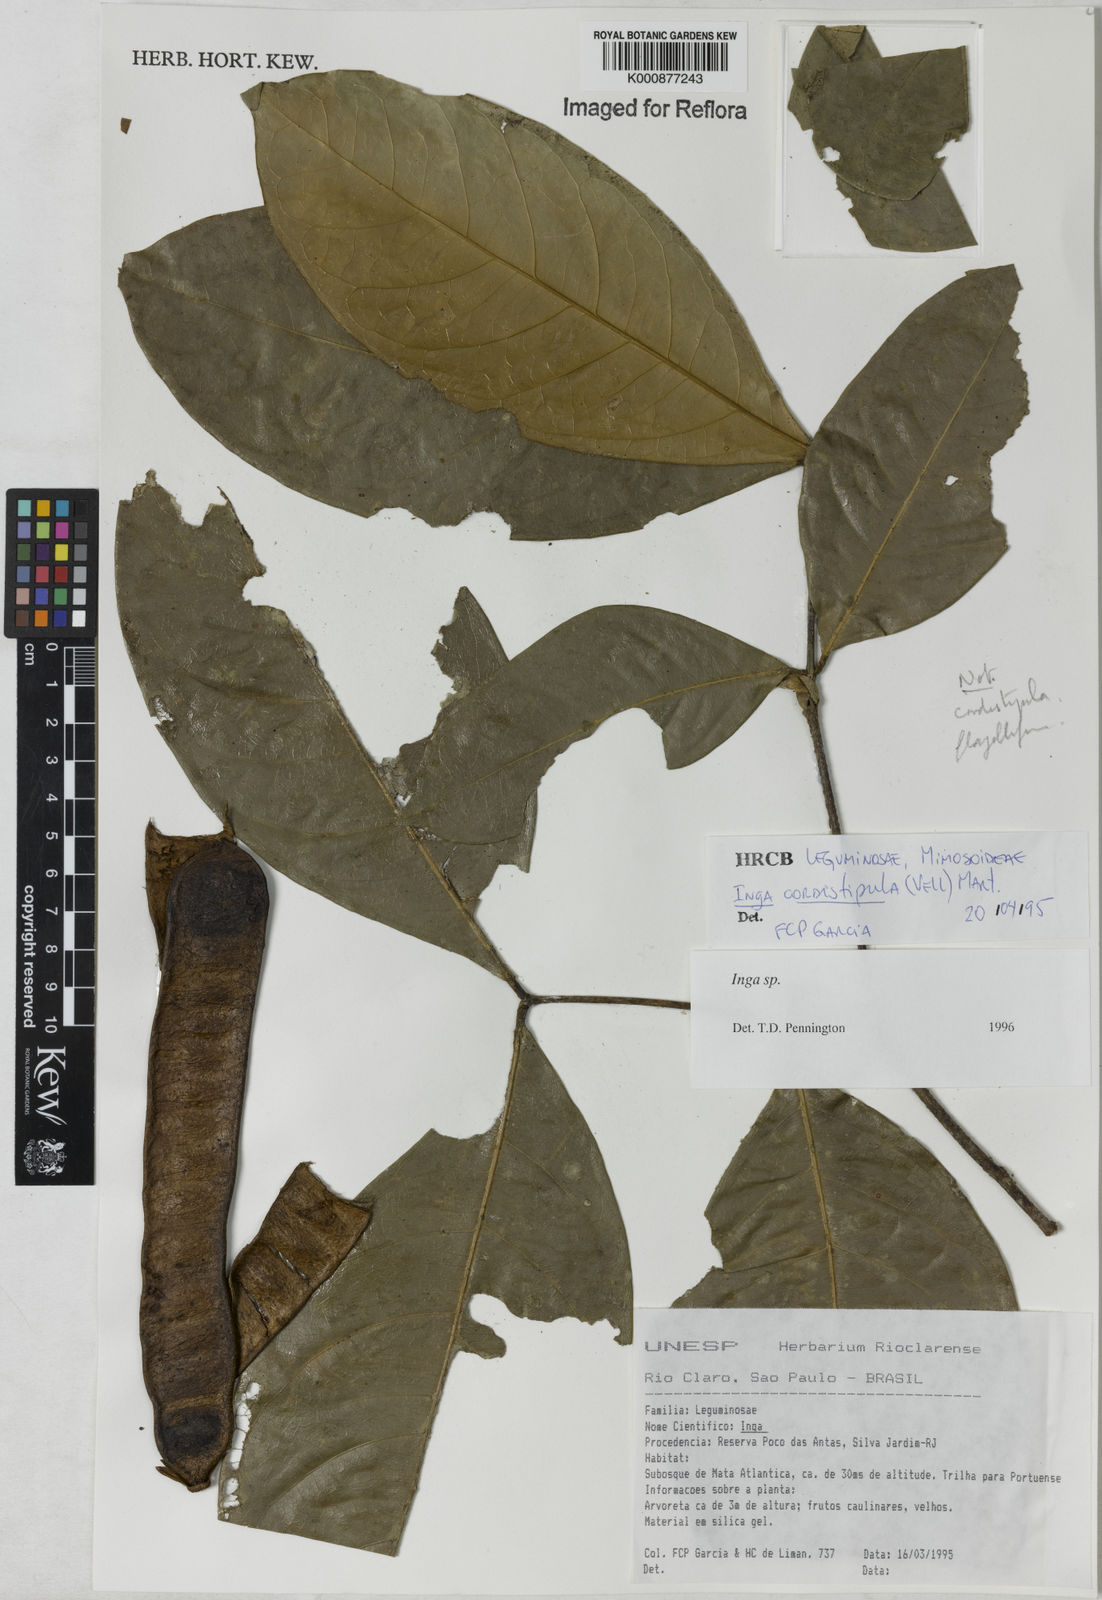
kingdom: Plantae
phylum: Tracheophyta
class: Magnoliopsida
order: Fabales
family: Fabaceae
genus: Inga
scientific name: Inga
